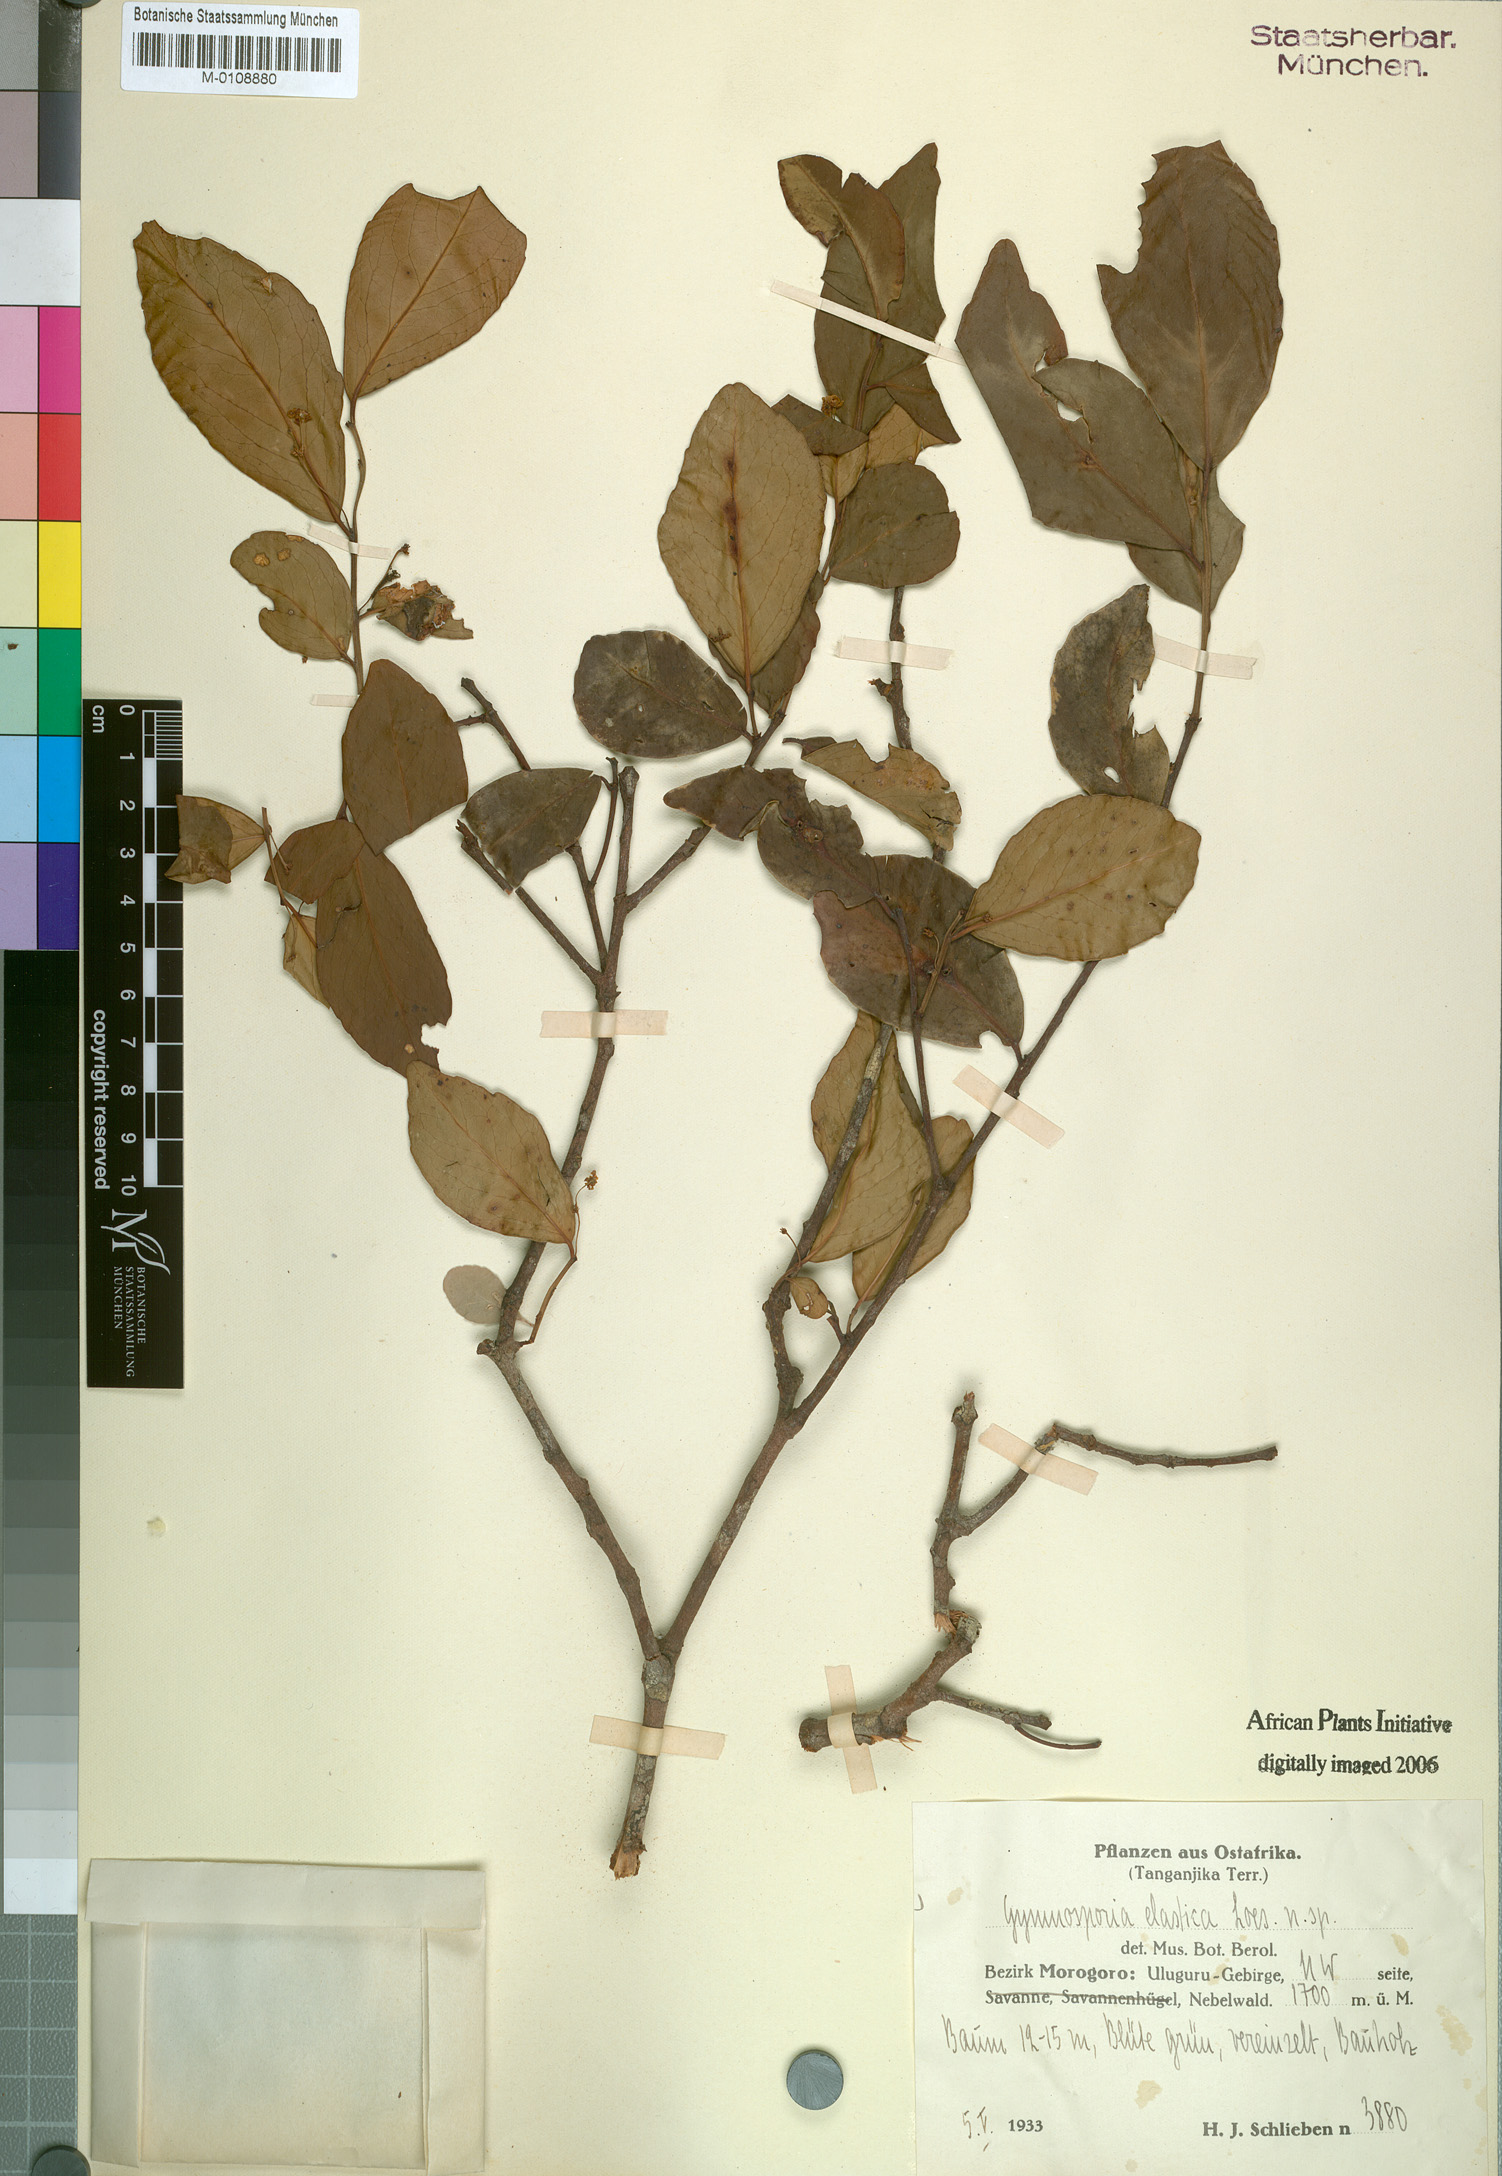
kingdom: Plantae
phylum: Tracheophyta
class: Magnoliopsida
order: Celastrales
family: Celastraceae
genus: Gymnosporia
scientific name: Gymnosporia
